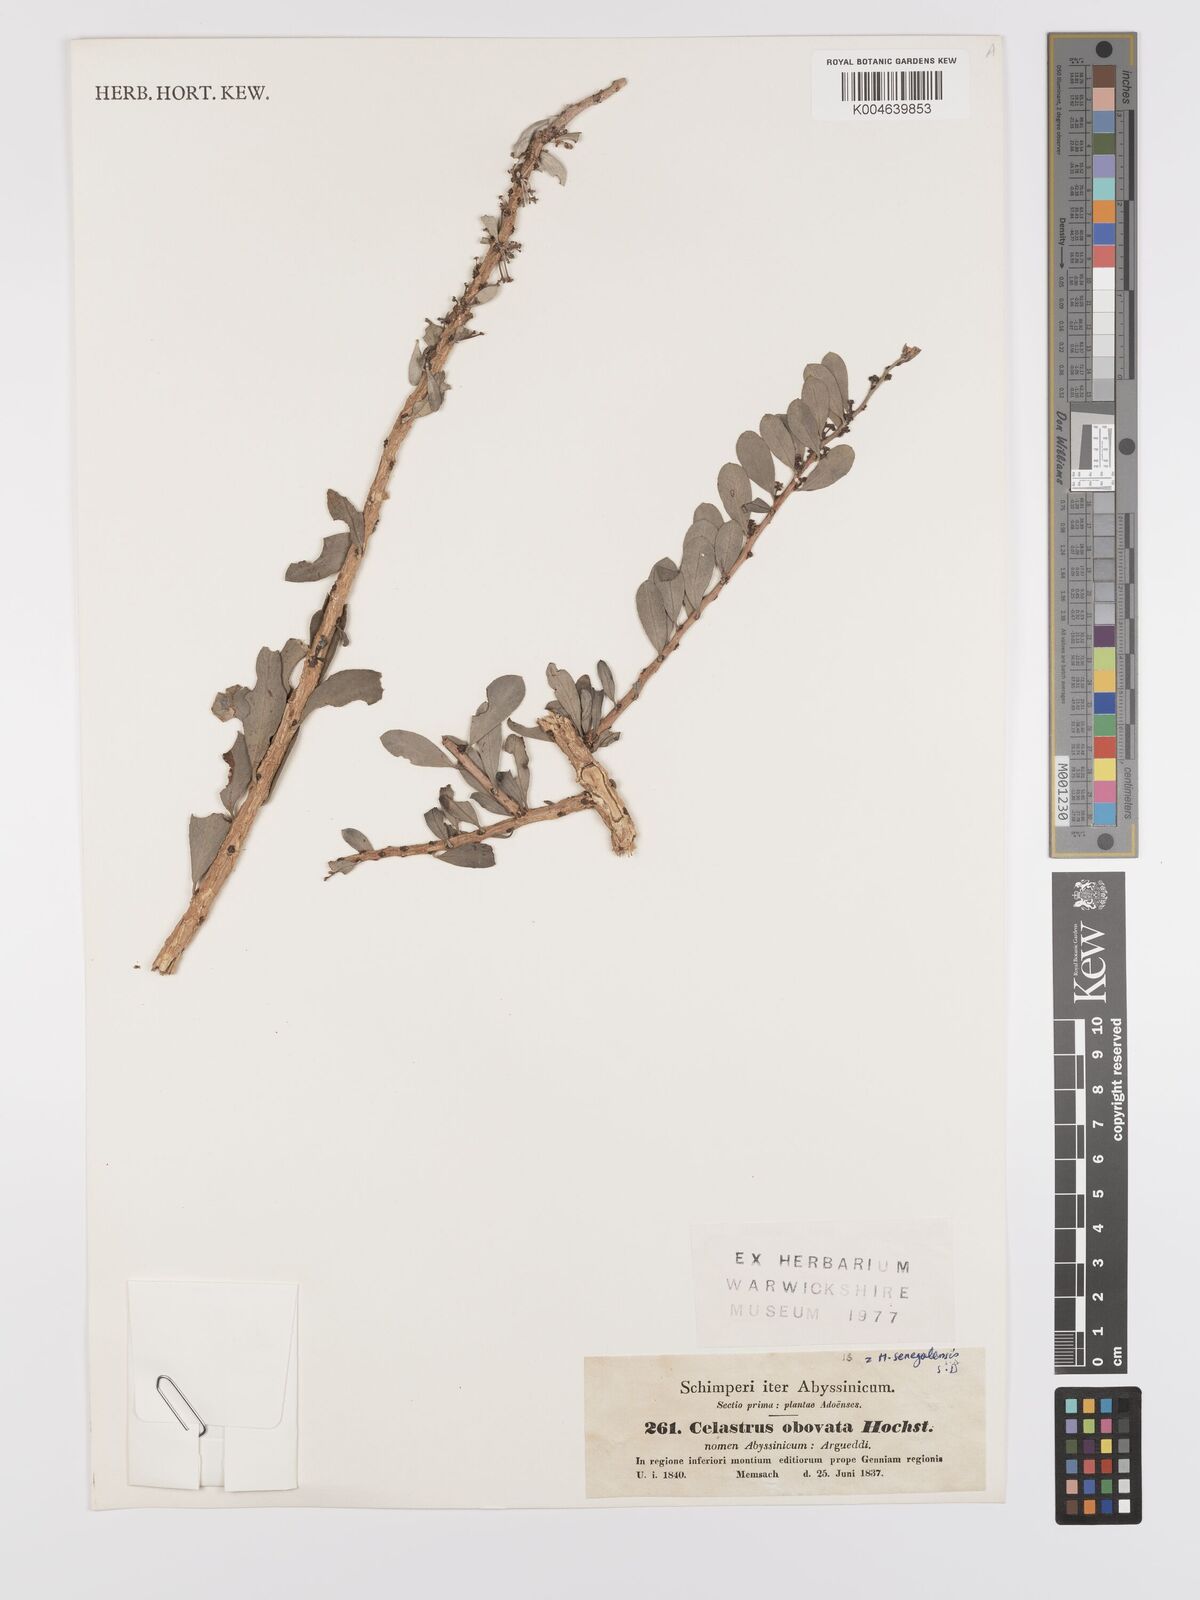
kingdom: Plantae
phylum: Tracheophyta
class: Magnoliopsida
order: Celastrales
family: Celastraceae
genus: Gymnosporia
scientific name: Gymnosporia senegalensis
